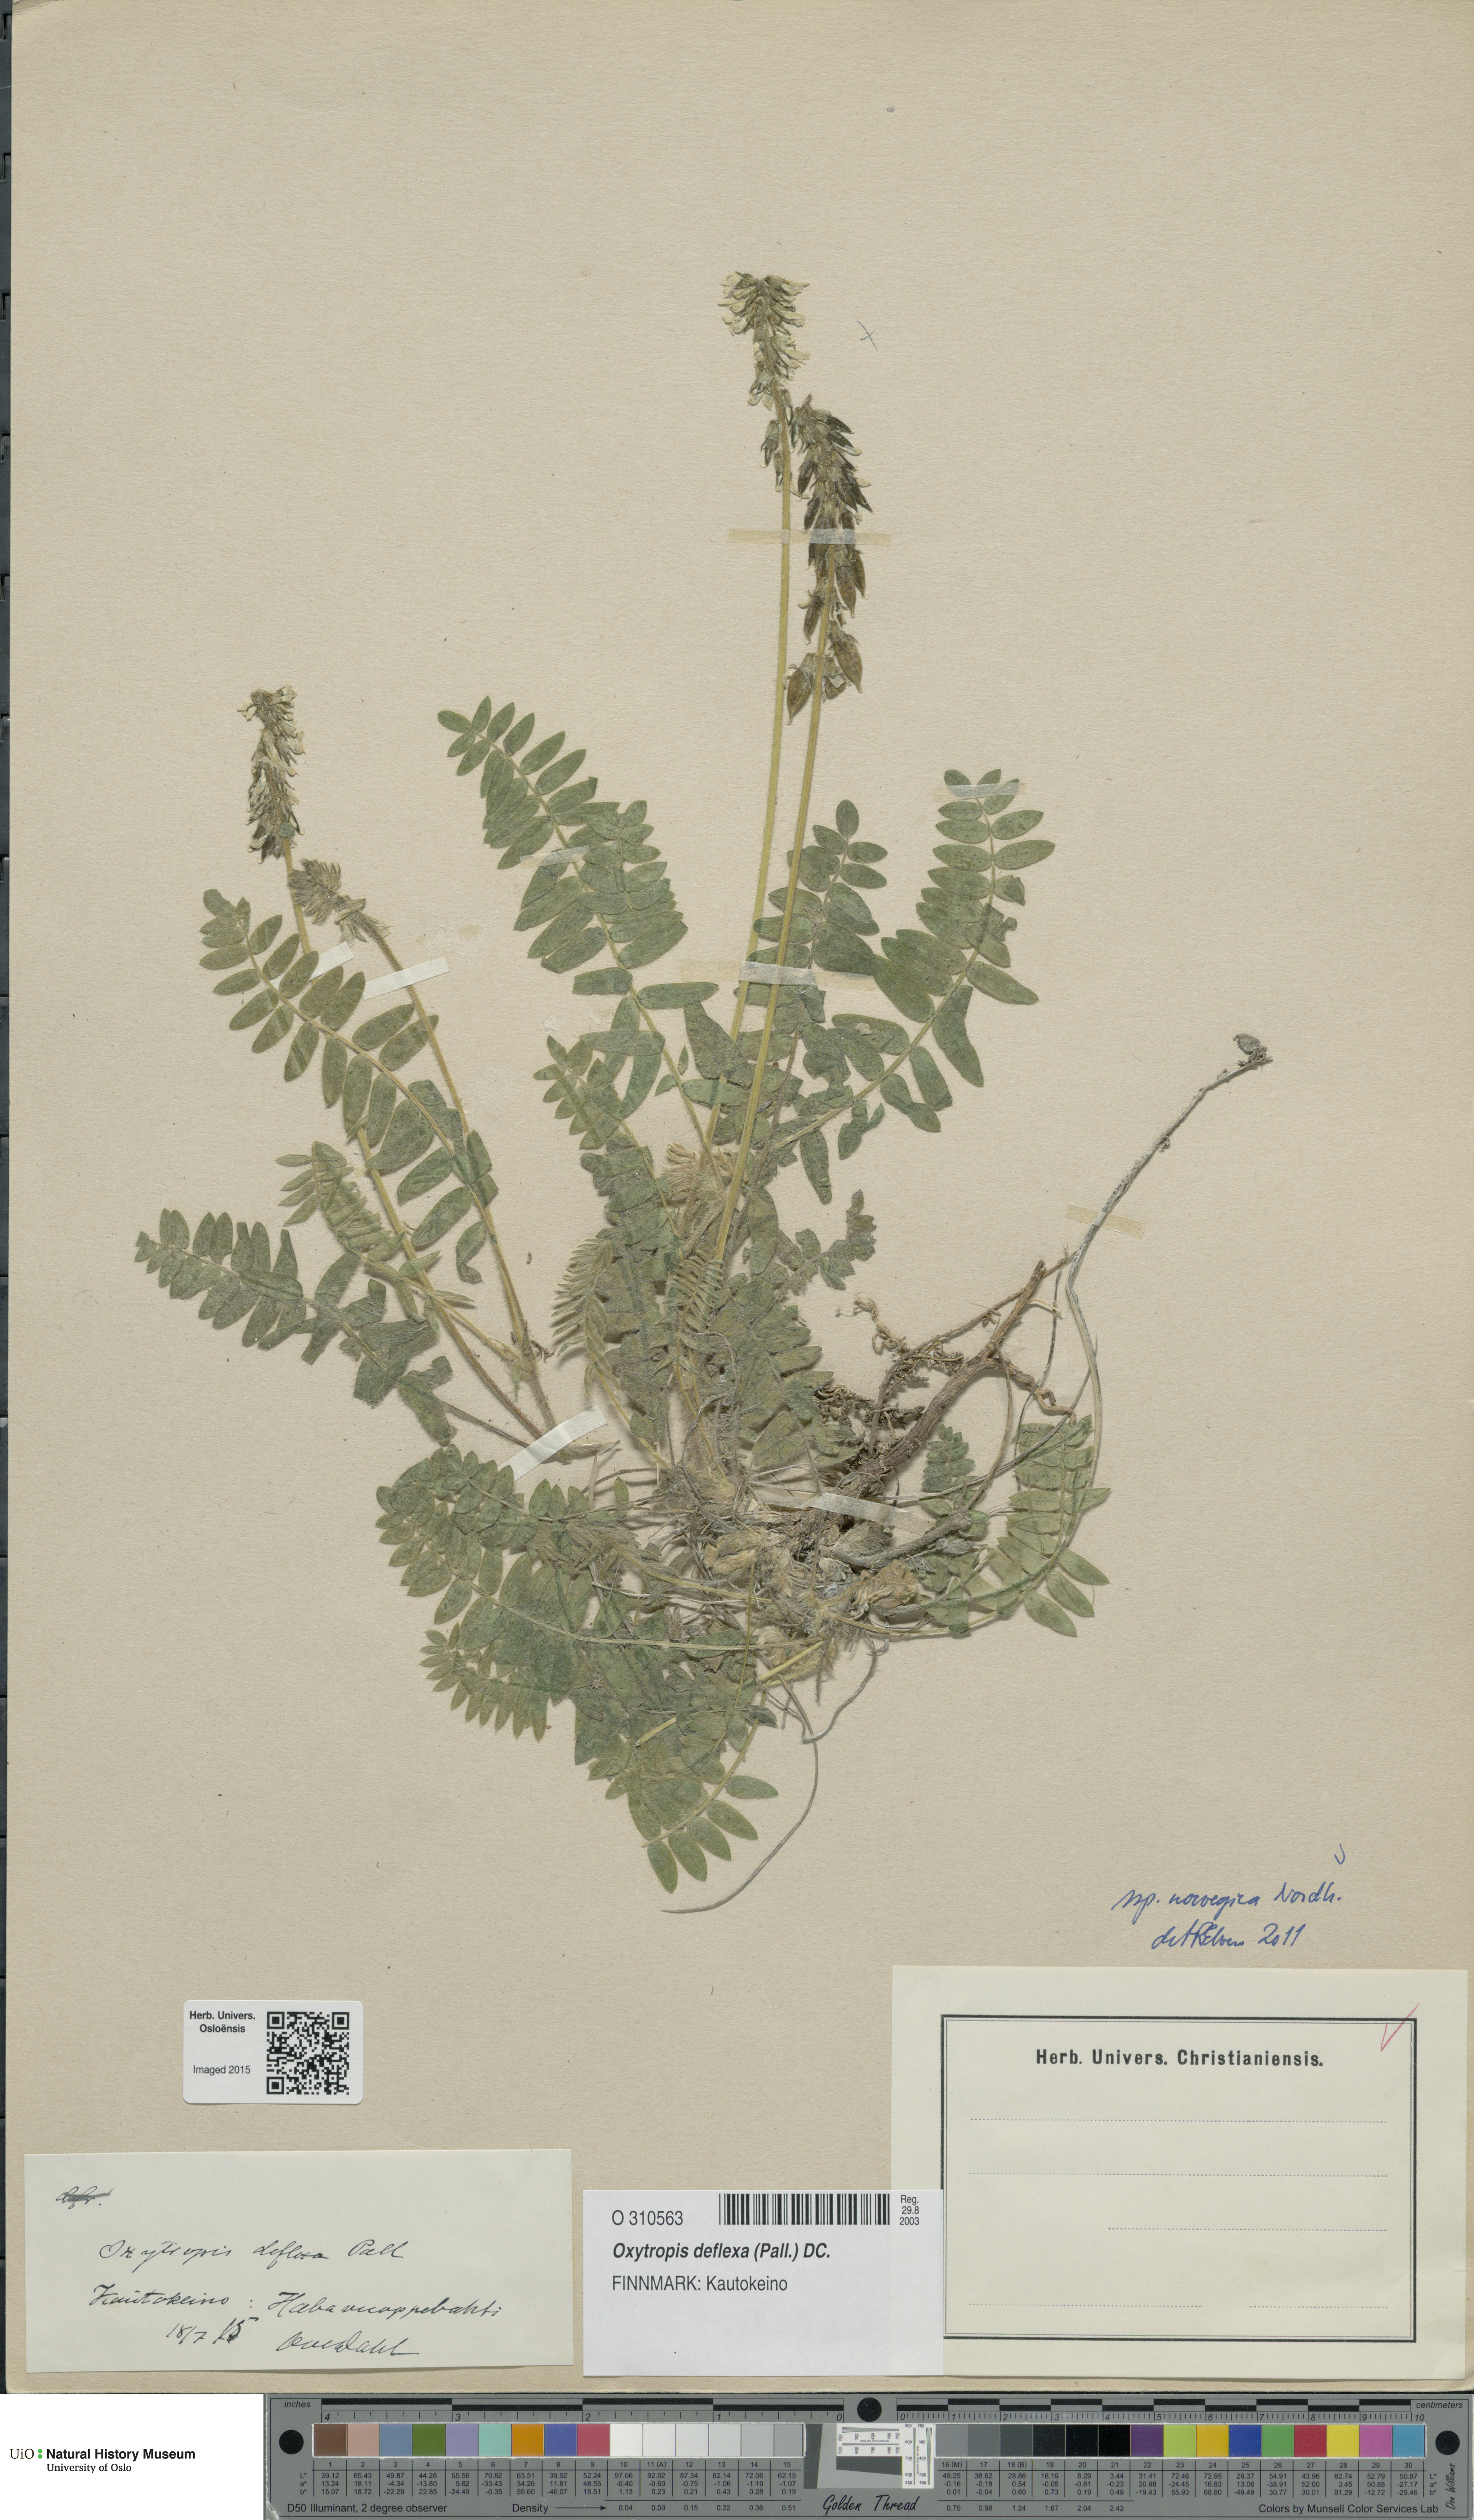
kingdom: Plantae
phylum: Tracheophyta
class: Magnoliopsida
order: Fabales
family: Fabaceae
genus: Oxytropis
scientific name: Oxytropis deflexa
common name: Stemmed oxytrope
